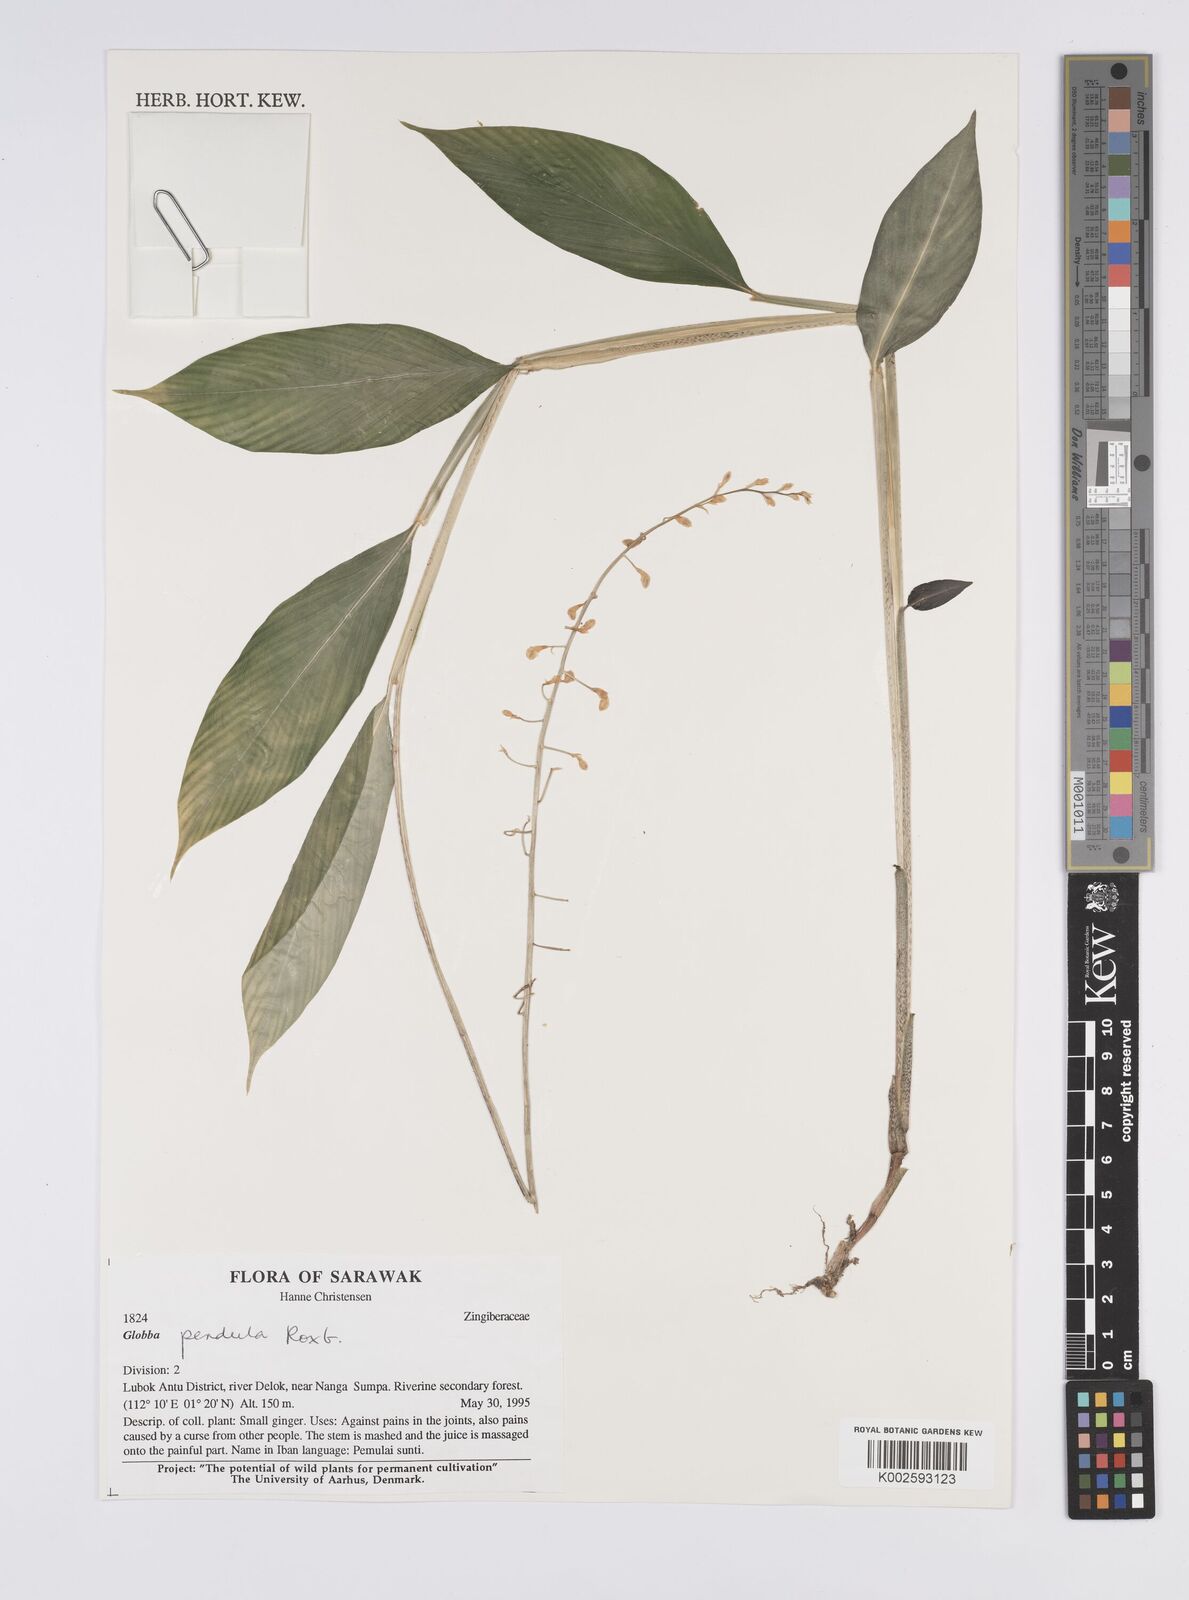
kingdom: Plantae
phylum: Tracheophyta
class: Liliopsida
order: Zingiberales
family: Zingiberaceae
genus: Globba
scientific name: Globba pendula
